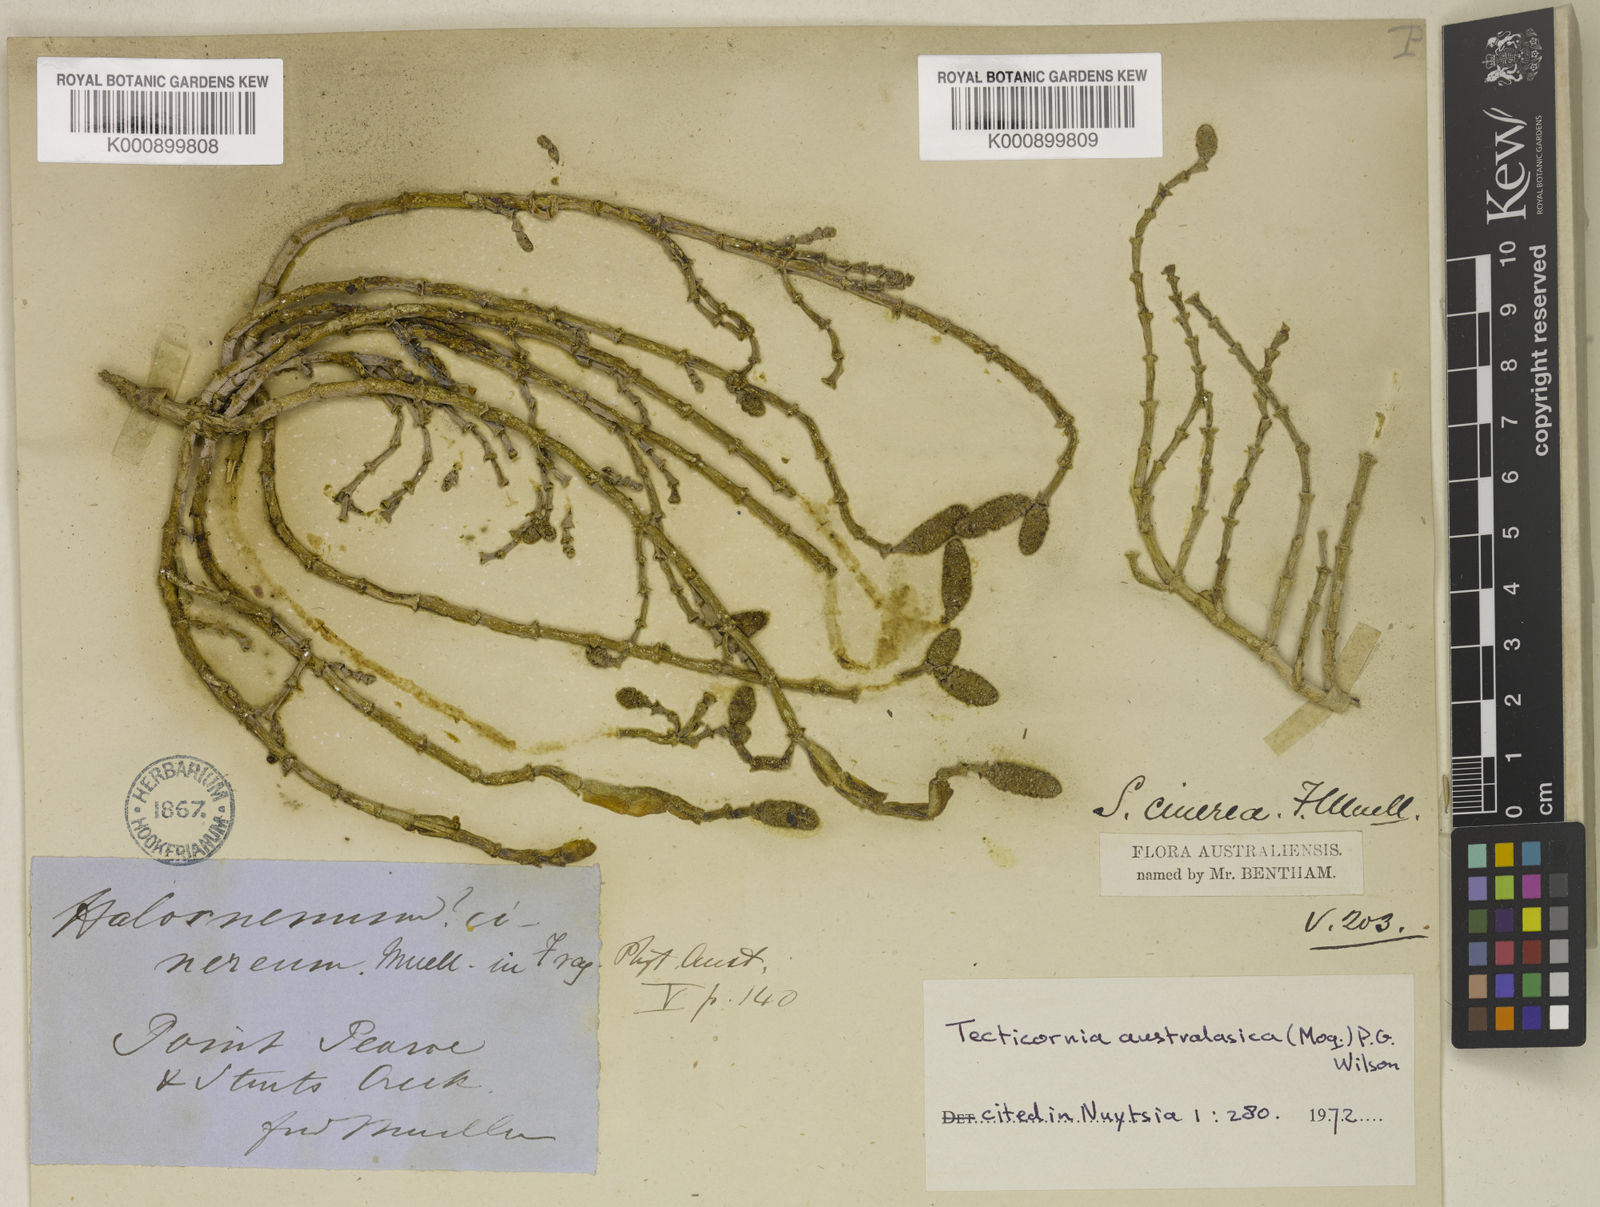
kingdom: Plantae
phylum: Tracheophyta
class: Magnoliopsida
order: Caryophyllales
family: Amaranthaceae
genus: Tecticornia
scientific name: Tecticornia australasica
